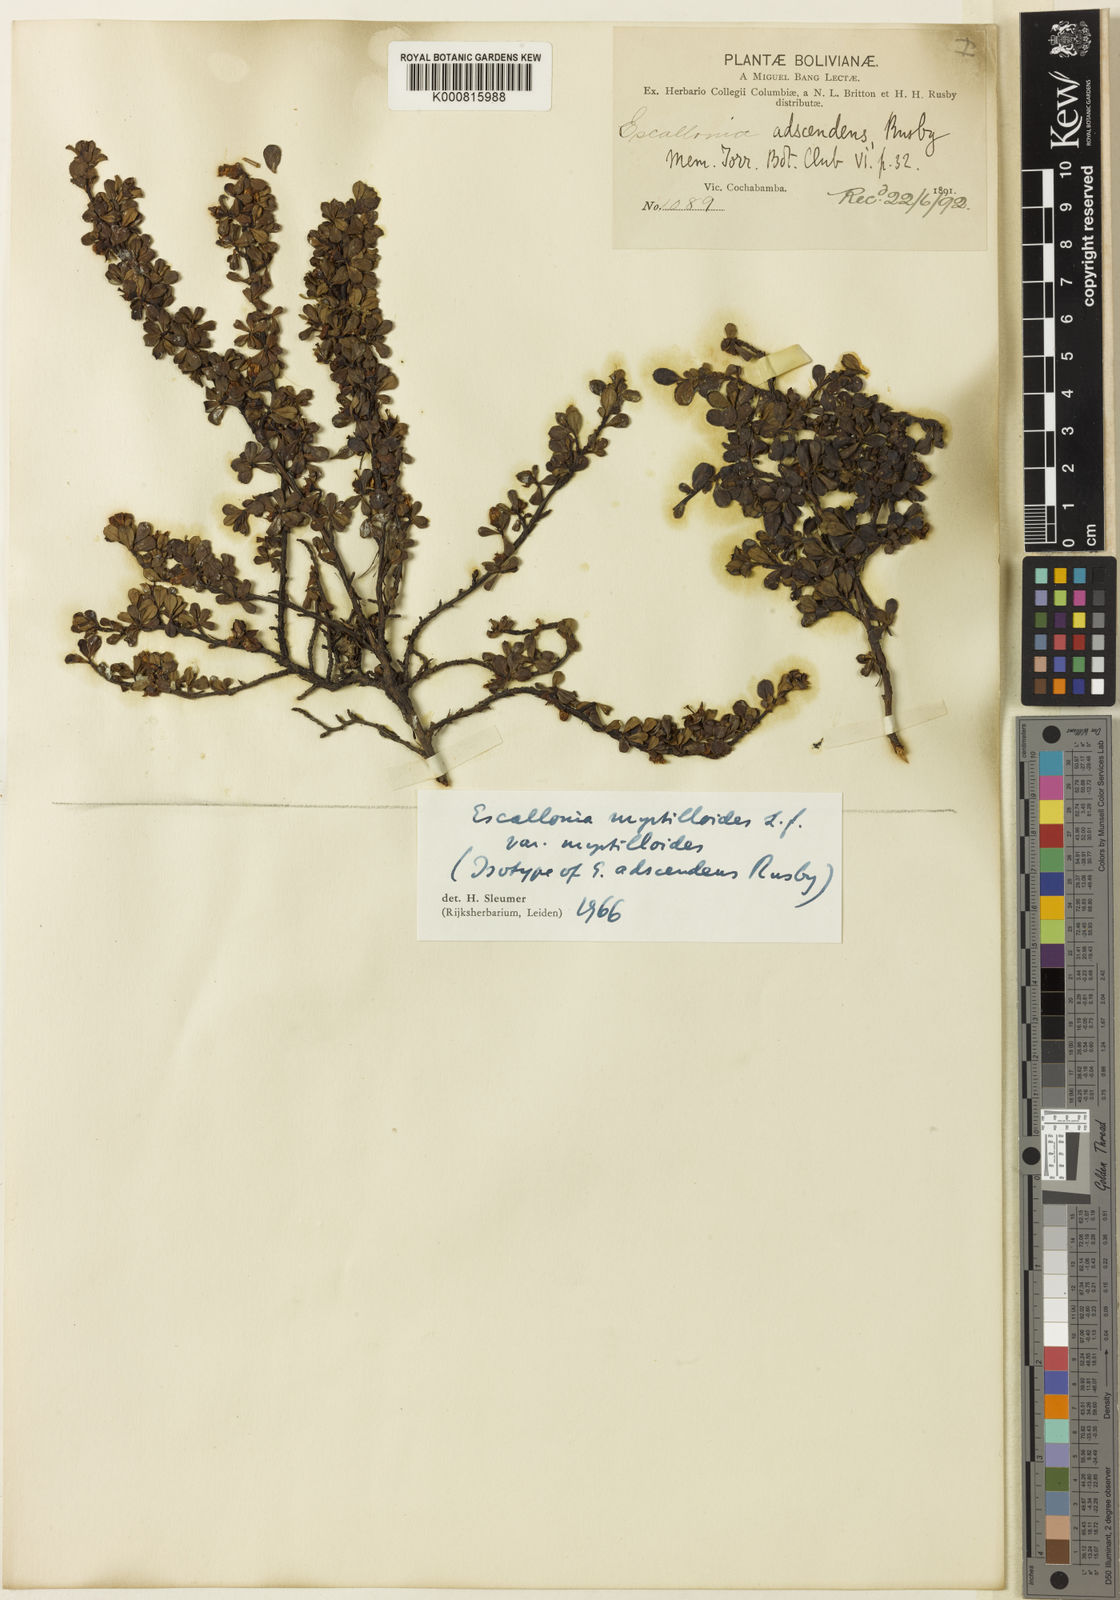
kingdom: Plantae
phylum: Tracheophyta
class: Magnoliopsida
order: Escalloniales
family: Escalloniaceae
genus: Escallonia
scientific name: Escallonia myrtilloides
